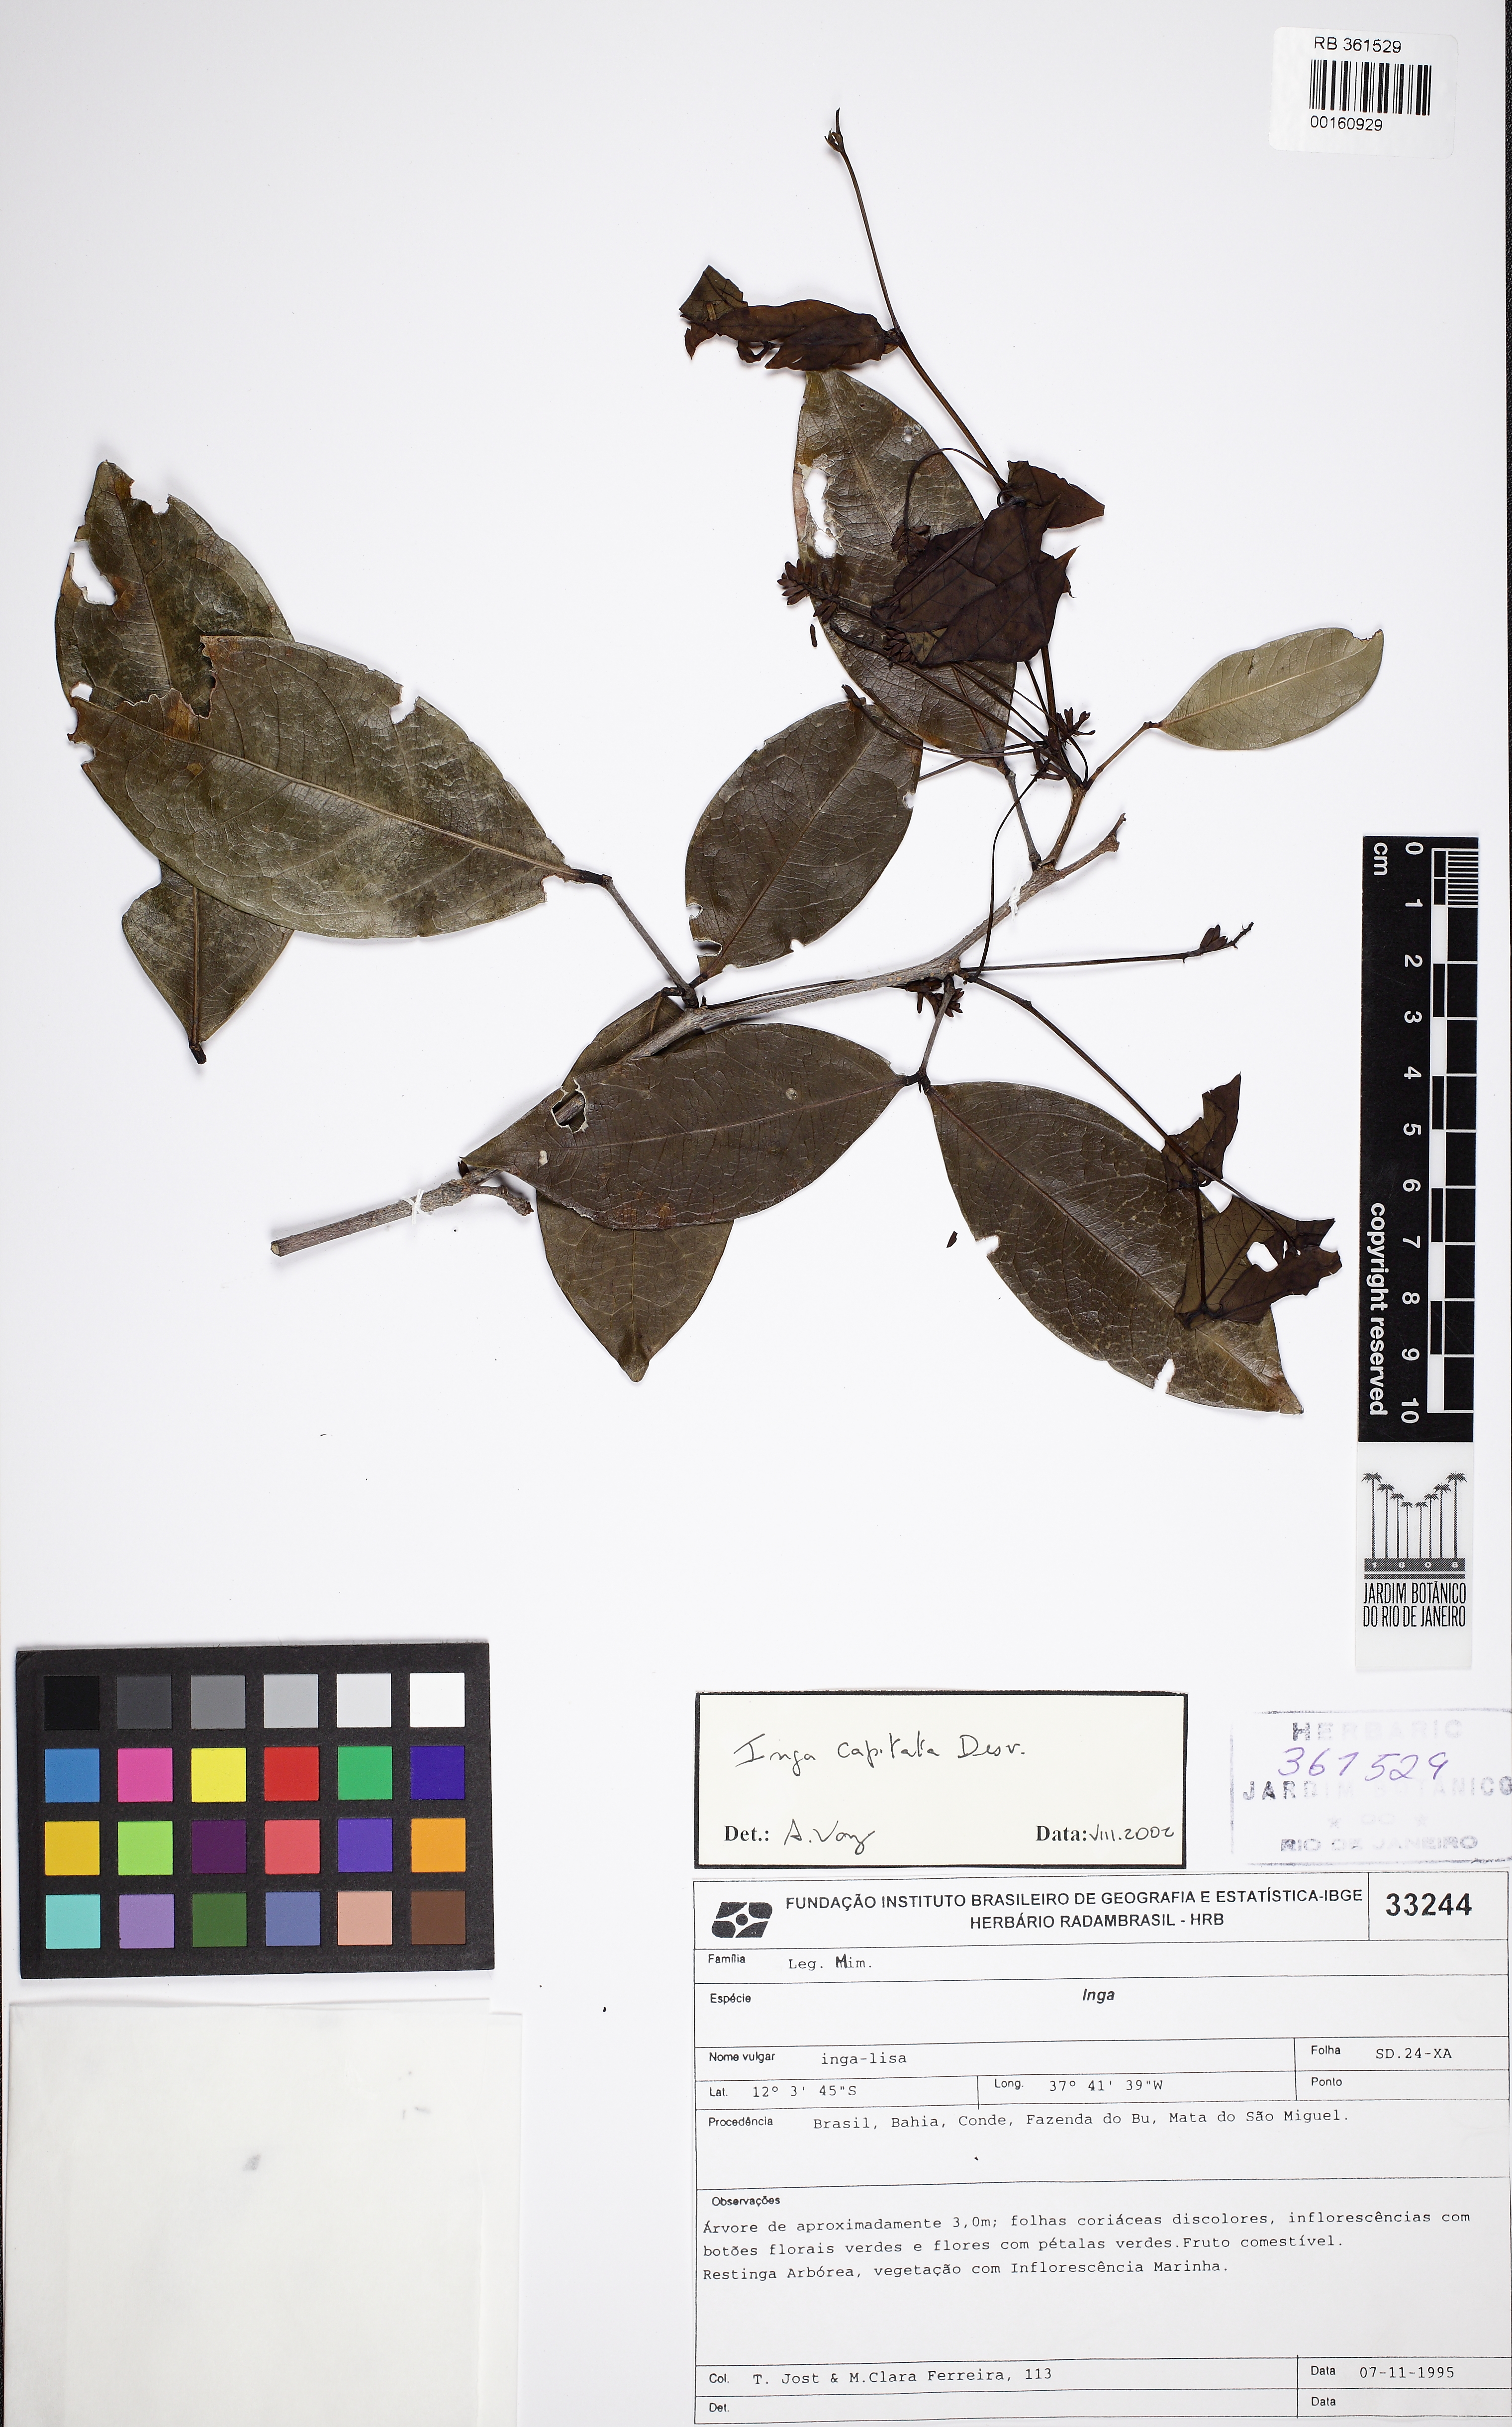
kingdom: Plantae
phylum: Tracheophyta
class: Magnoliopsida
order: Fabales
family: Fabaceae
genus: Inga
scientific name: Inga capitata
